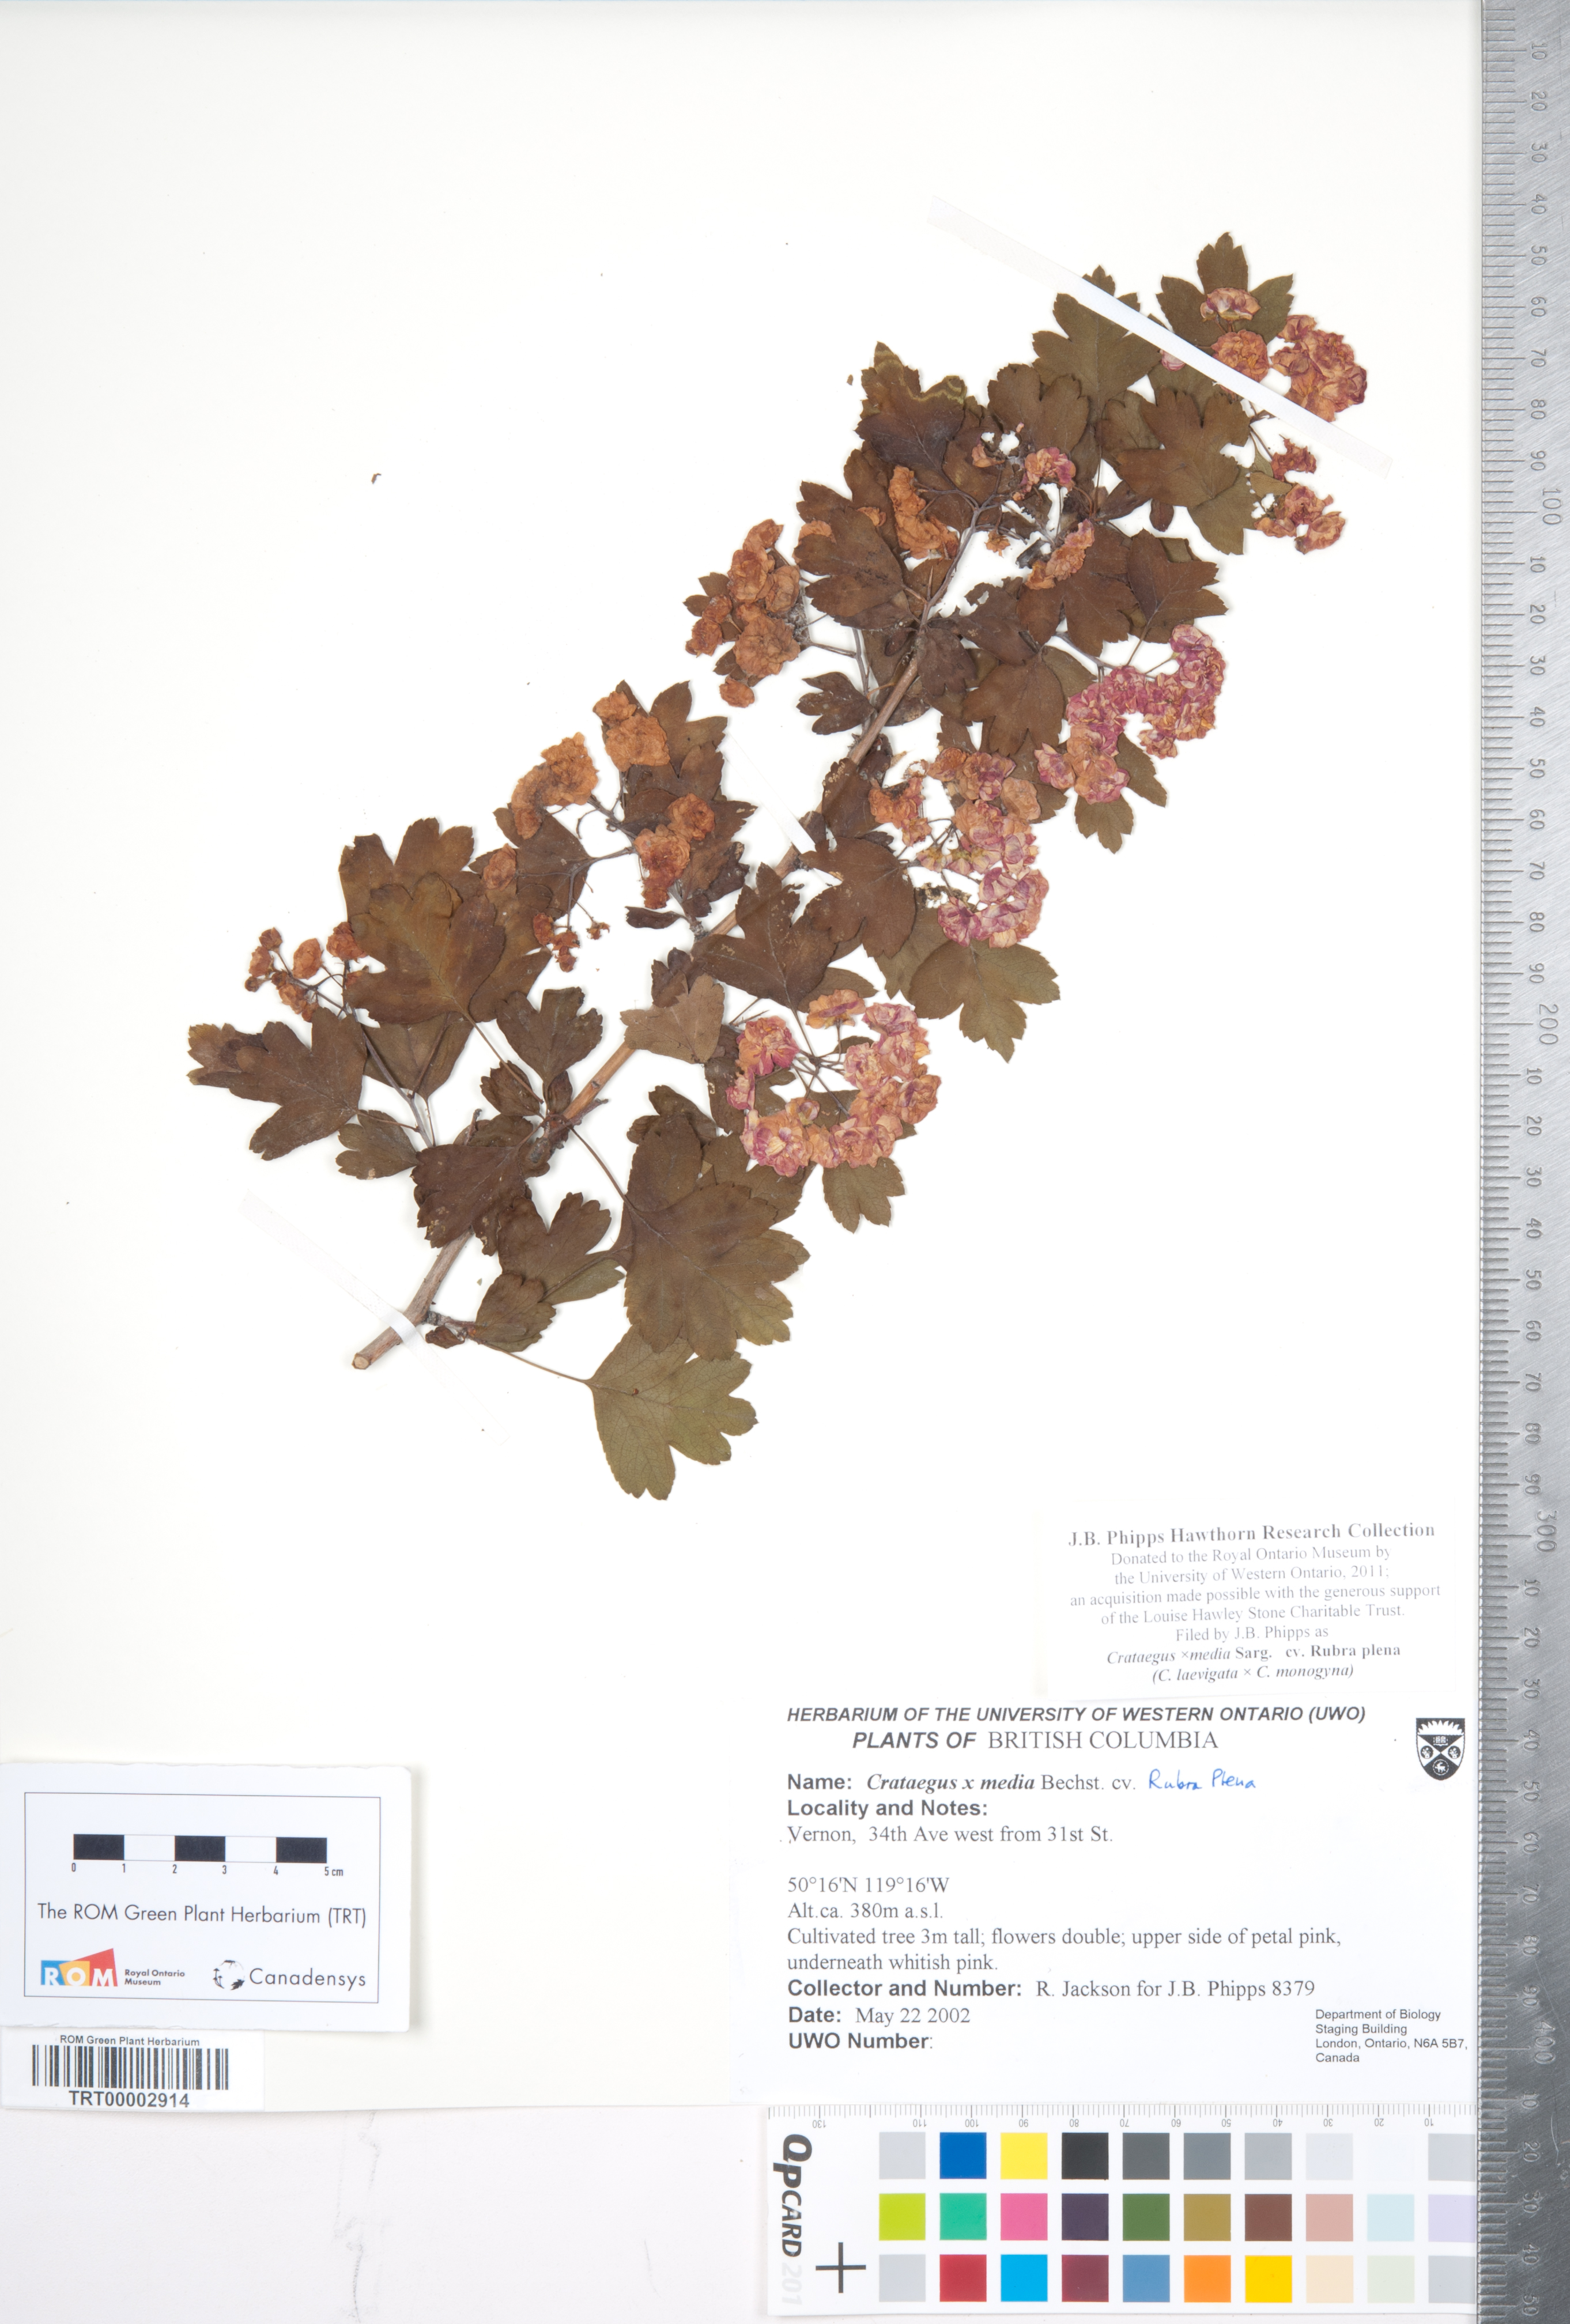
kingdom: Plantae
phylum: Tracheophyta
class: Magnoliopsida
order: Rosales
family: Rosaceae
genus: Crataegus
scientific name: Crataegus media
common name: Intermediate hawthorn
